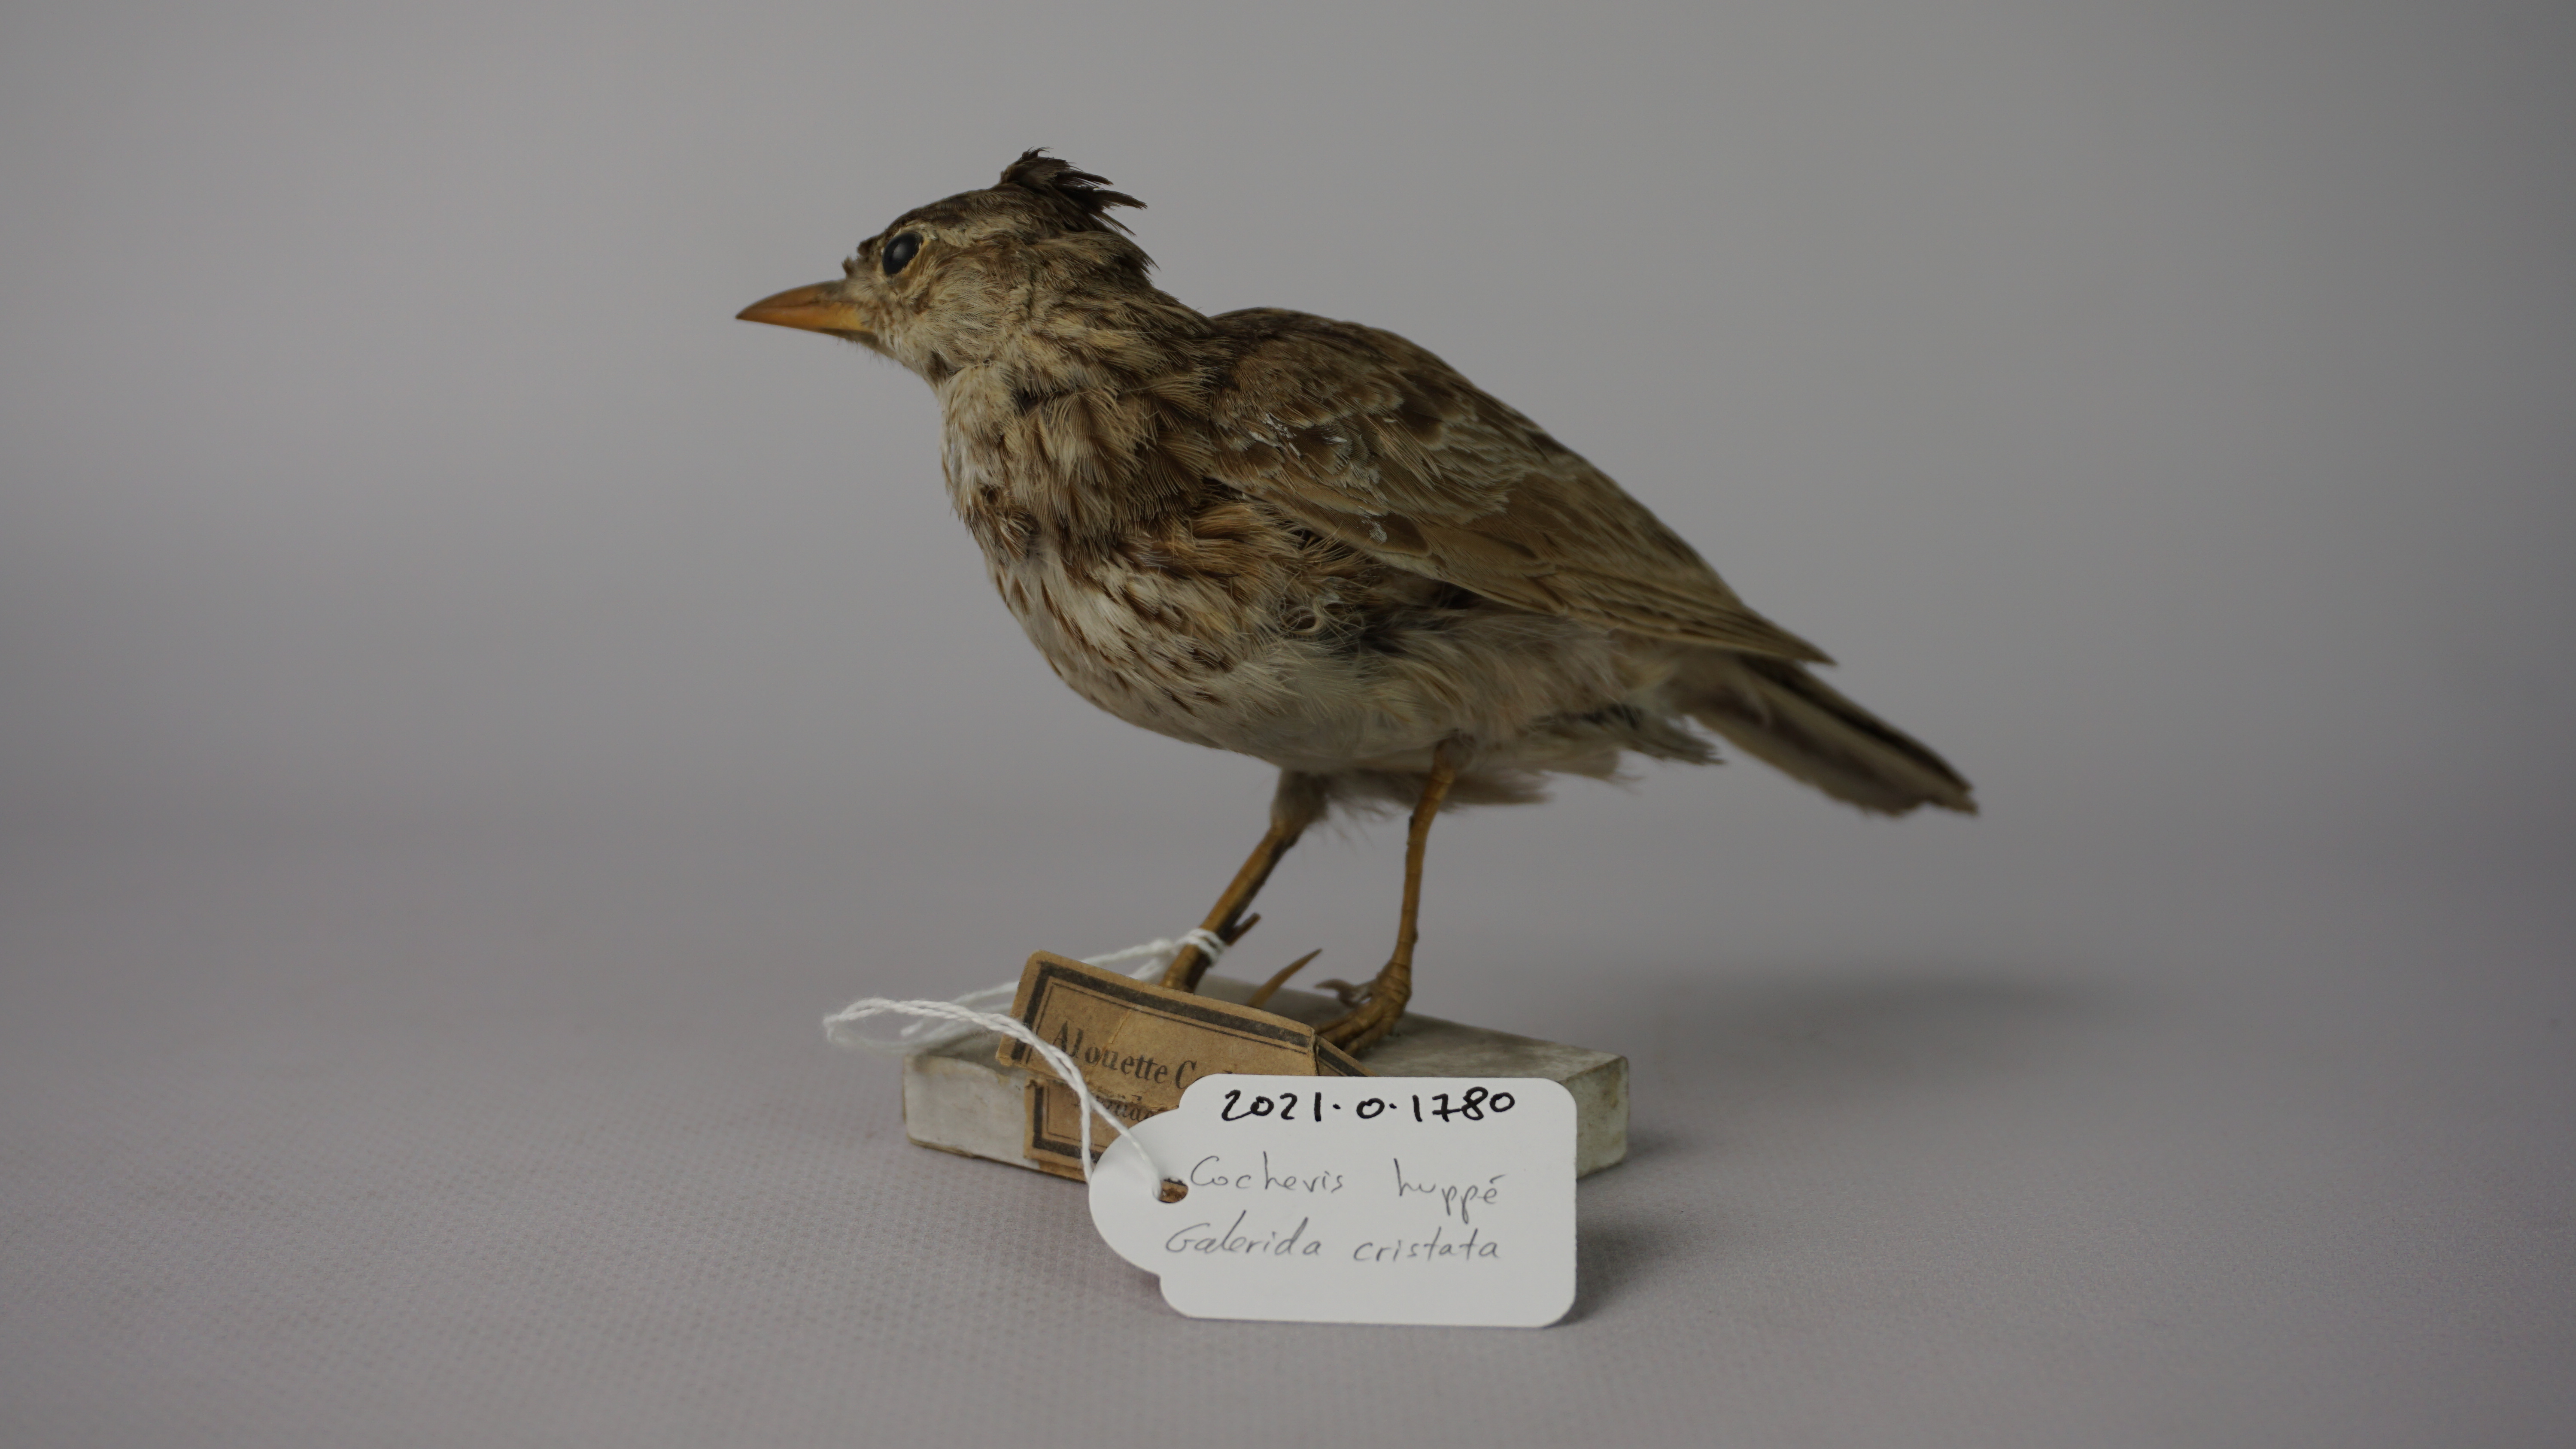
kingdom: Animalia
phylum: Chordata
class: Aves
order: Passeriformes
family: Alaudidae
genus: Galerida
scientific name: Galerida cristata
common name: Crested lark
